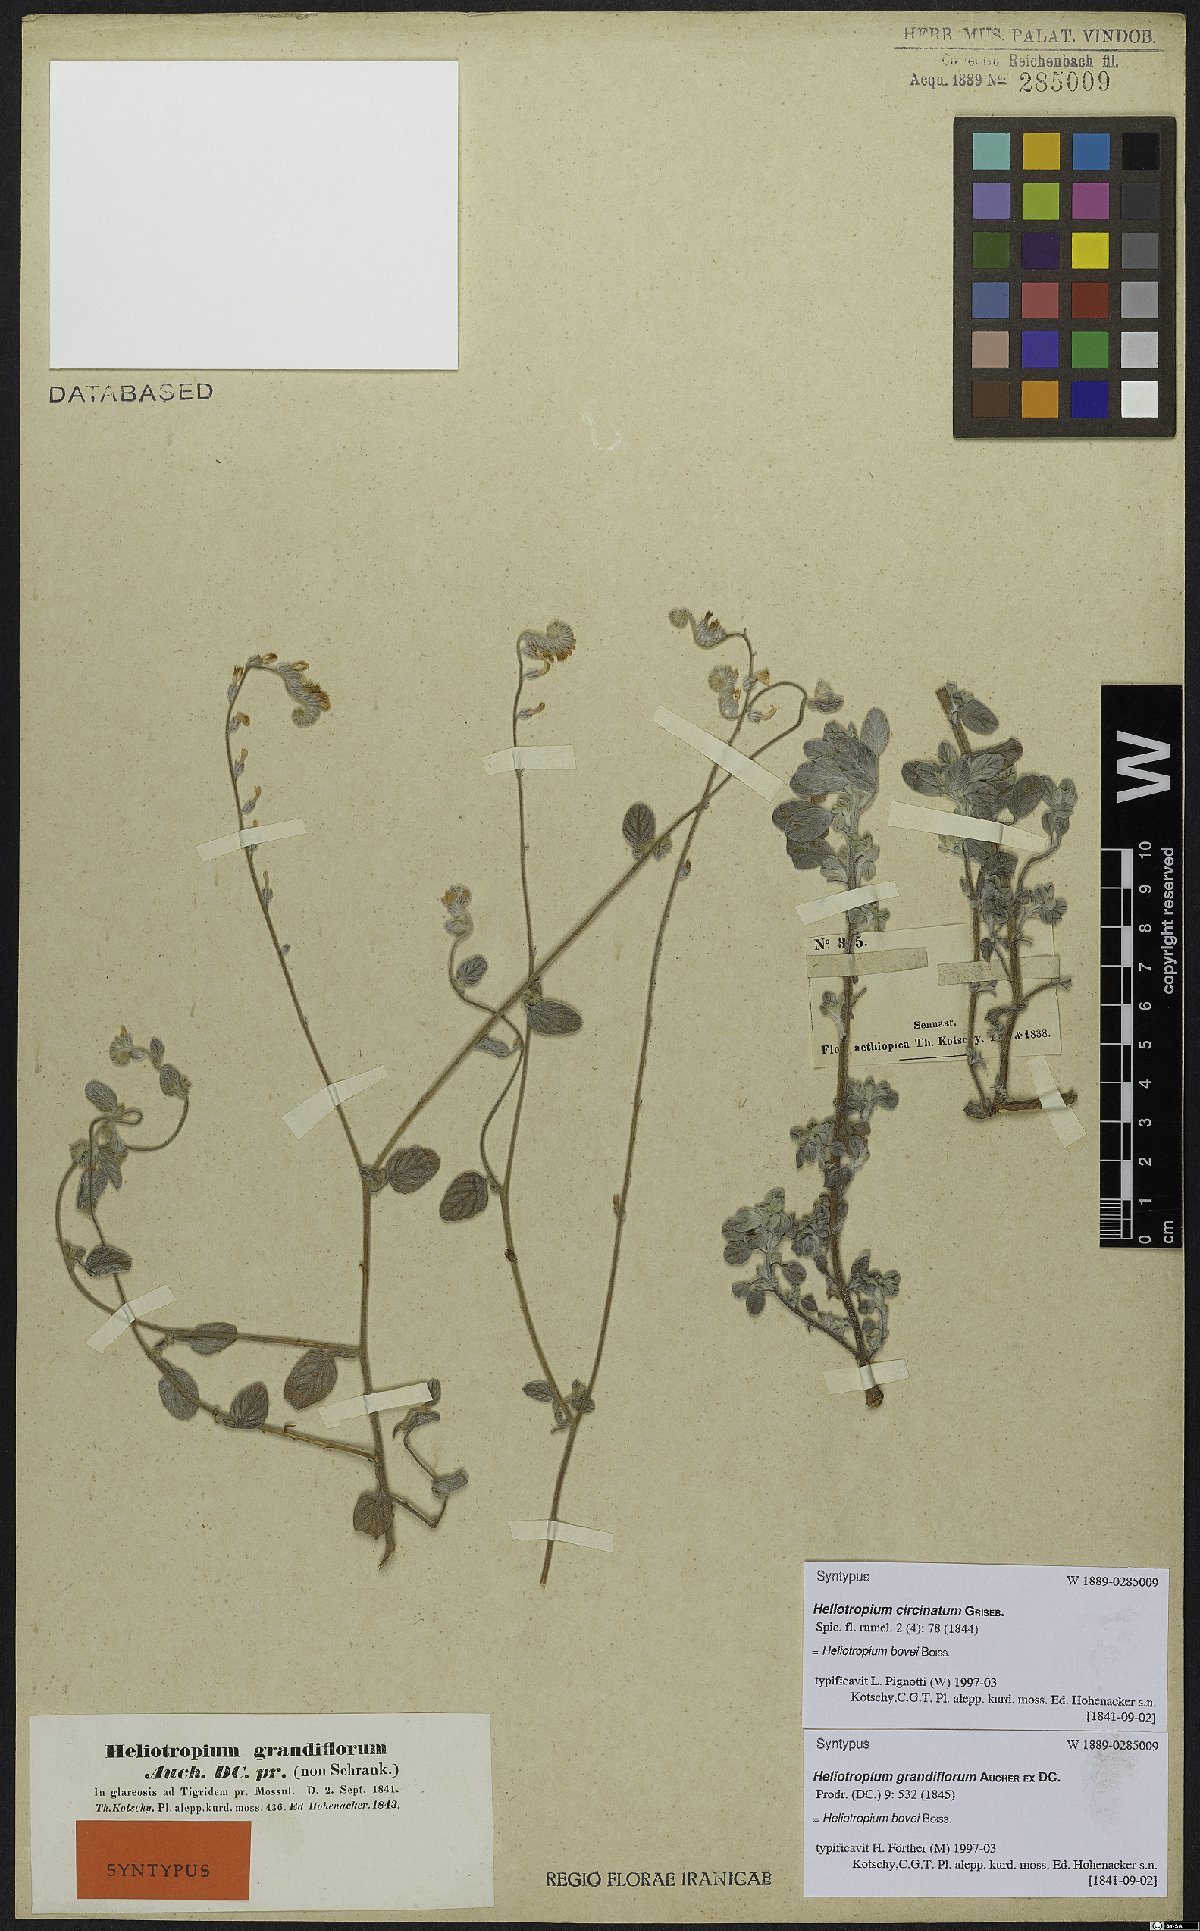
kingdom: Plantae
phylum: Tracheophyta
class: Magnoliopsida
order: Boraginales
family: Heliotropiaceae
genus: Heliotropium
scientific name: Heliotropium bovei
